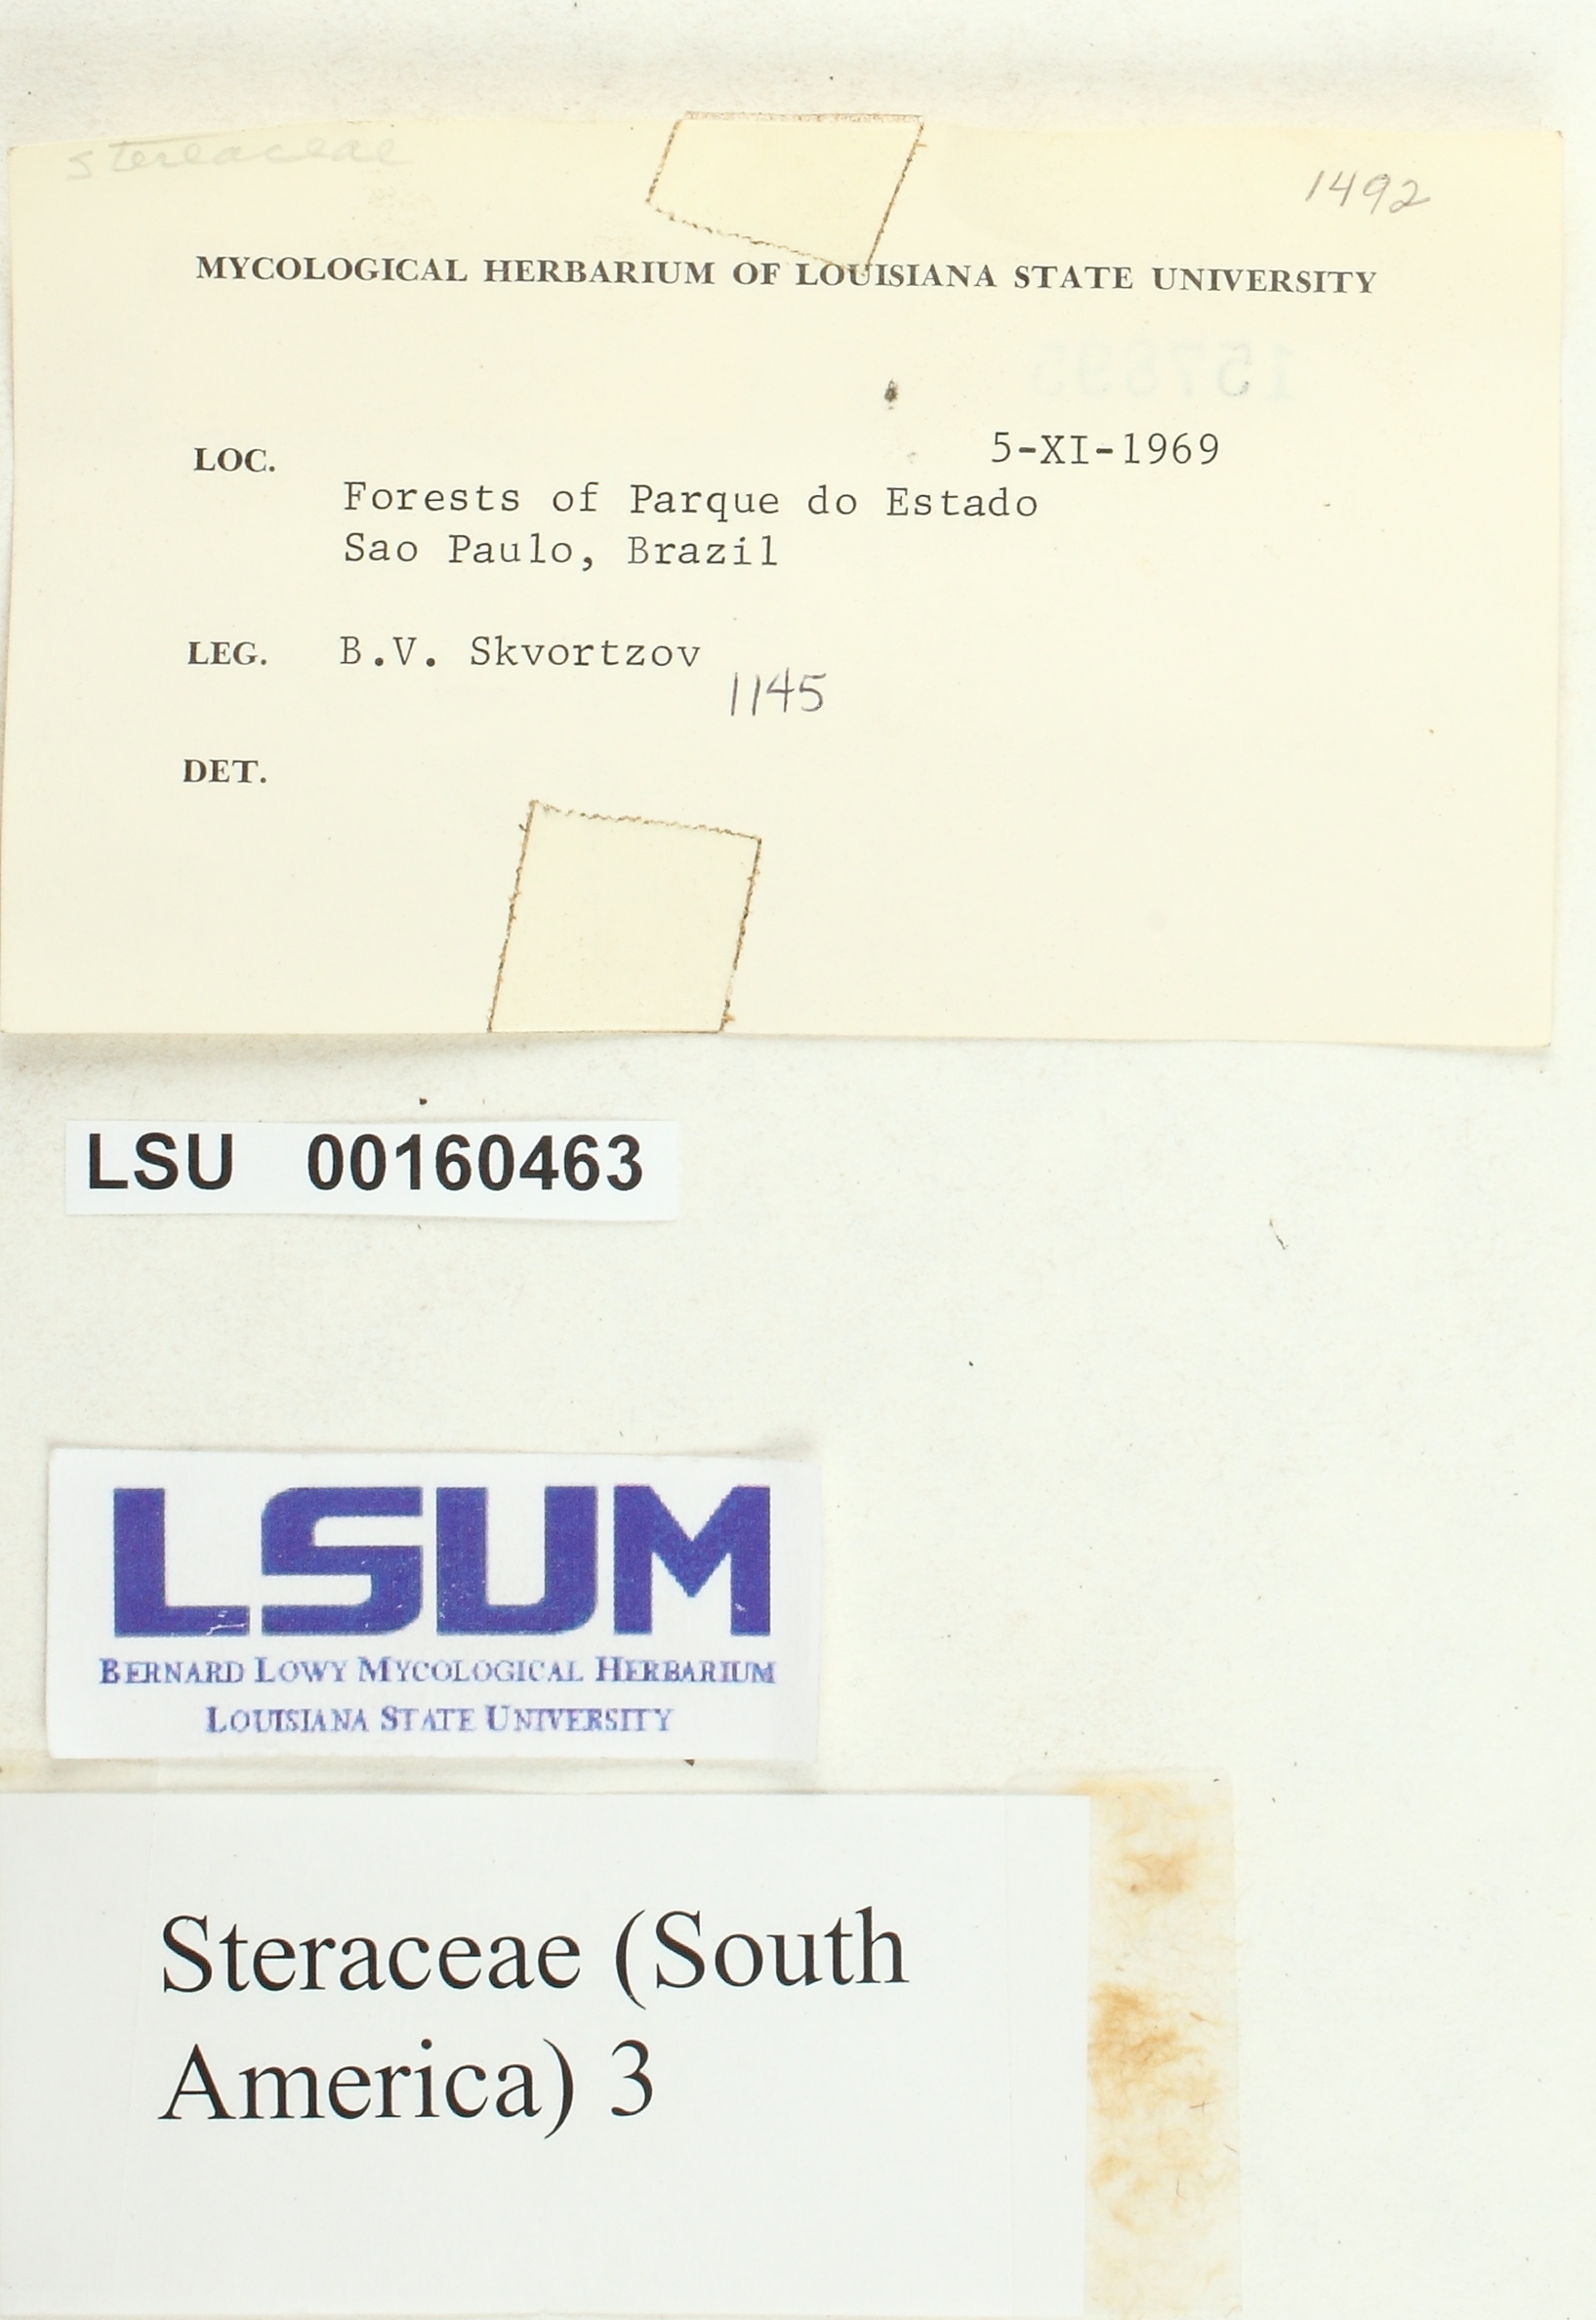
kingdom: Fungi
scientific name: Fungi
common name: Fungi
